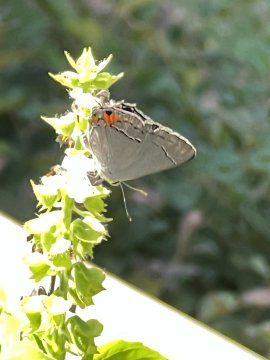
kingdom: Animalia
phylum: Arthropoda
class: Insecta
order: Lepidoptera
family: Lycaenidae
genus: Calycopis
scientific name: Calycopis cecrops
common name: Red-banded Hairstreak
